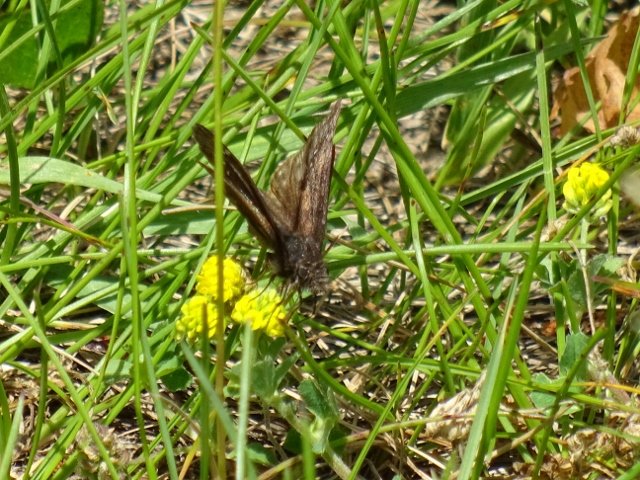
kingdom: Animalia
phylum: Arthropoda
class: Insecta
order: Lepidoptera
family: Hesperiidae
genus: Erynnis
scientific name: Erynnis
